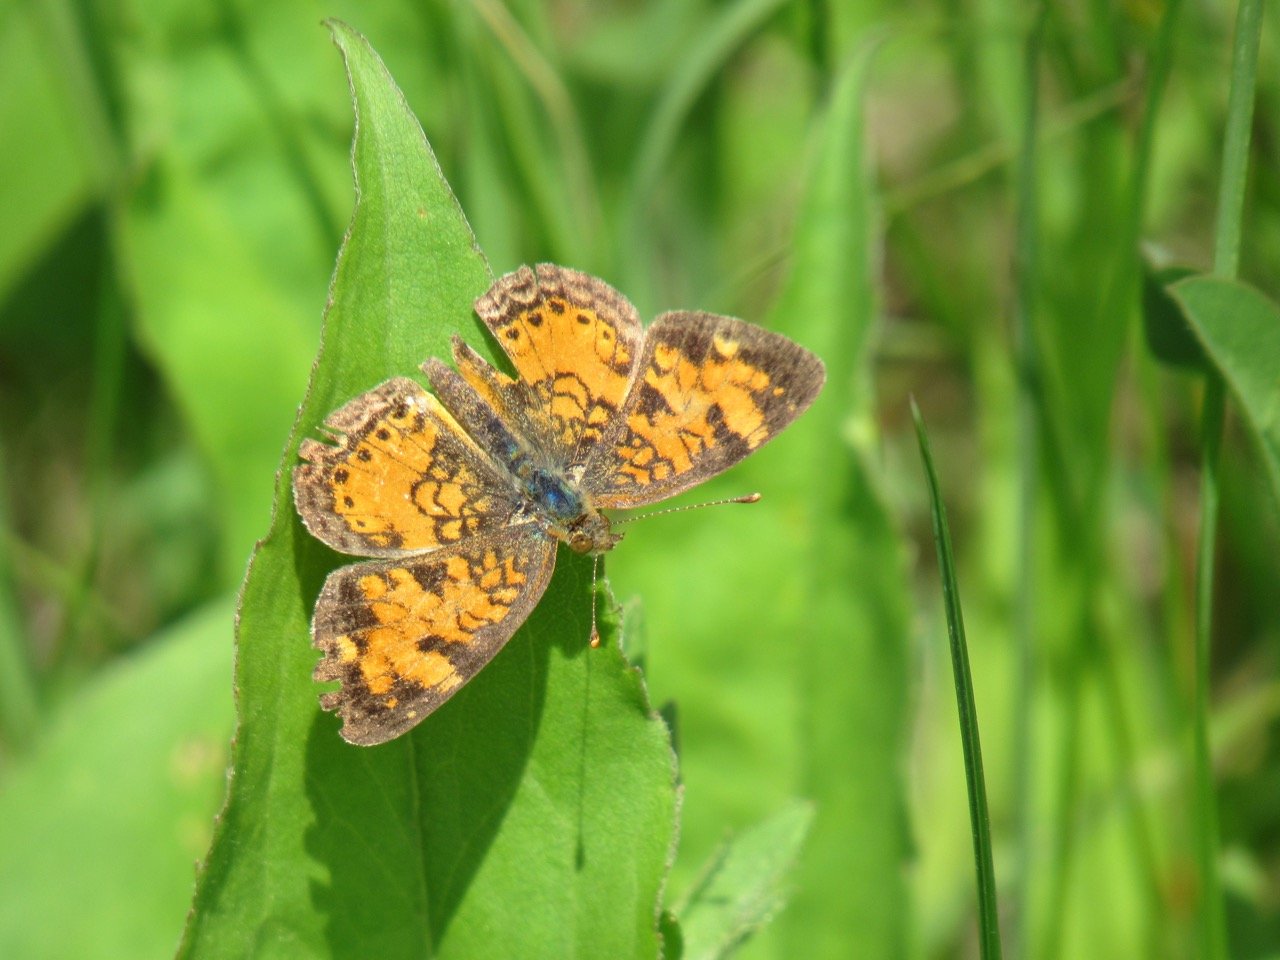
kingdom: Animalia
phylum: Arthropoda
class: Insecta
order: Lepidoptera
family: Nymphalidae
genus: Phyciodes
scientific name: Phyciodes tharos
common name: Pearl Crescent
